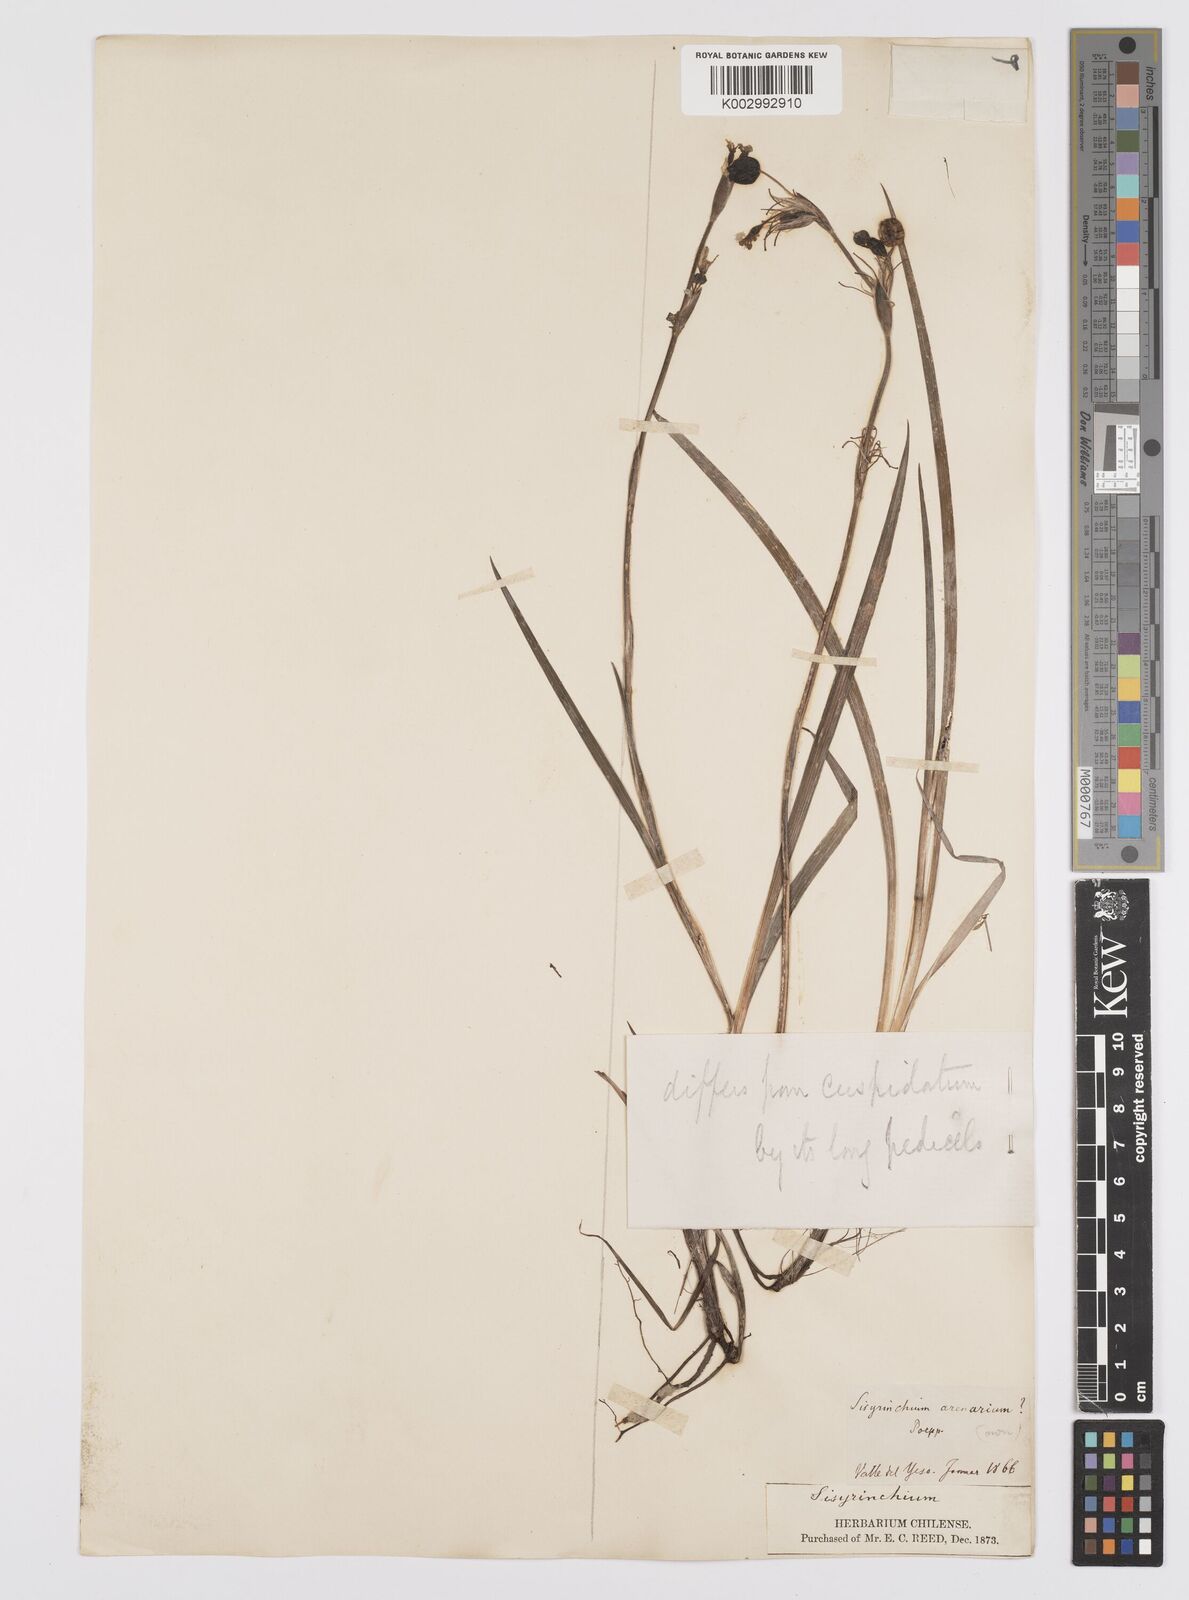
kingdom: Plantae
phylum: Tracheophyta
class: Liliopsida
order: Asparagales
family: Iridaceae
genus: Sisyrinchium
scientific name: Sisyrinchium cuspidatum
